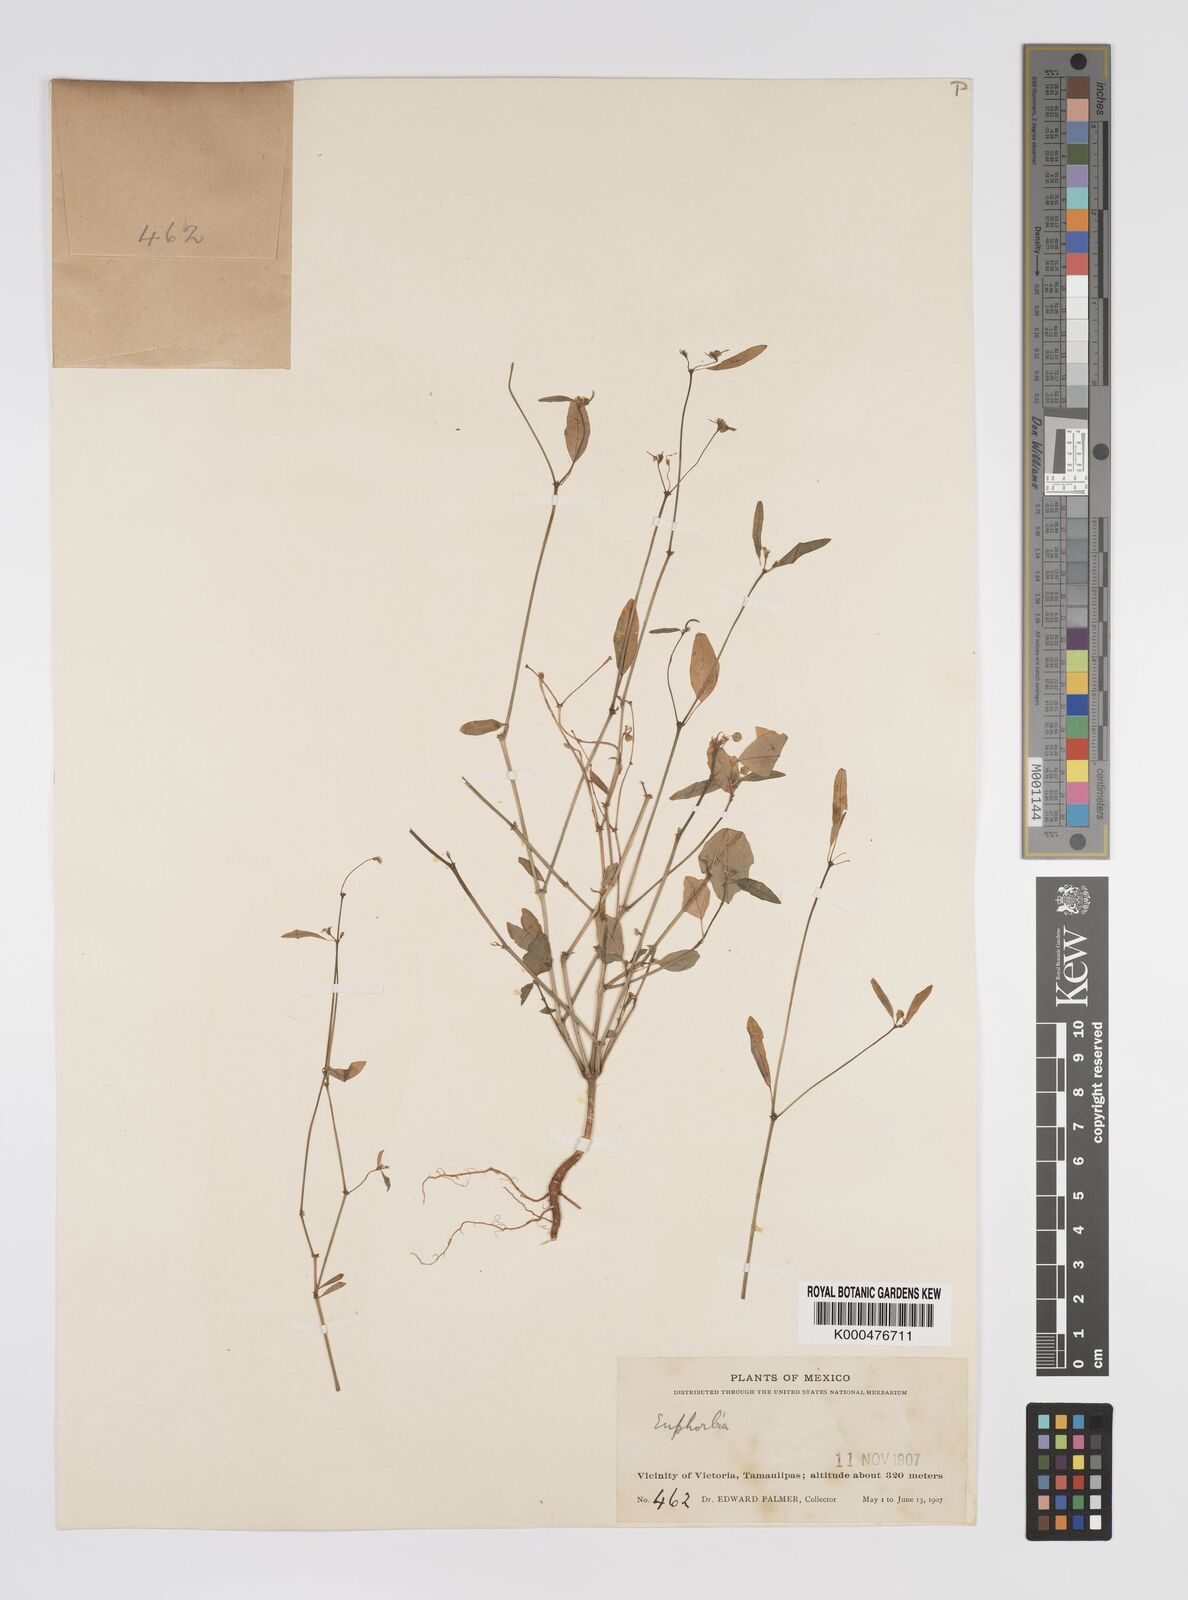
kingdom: Plantae
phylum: Tracheophyta
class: Magnoliopsida
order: Malpighiales
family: Euphorbiaceae
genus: Euphorbia
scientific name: Euphorbia
